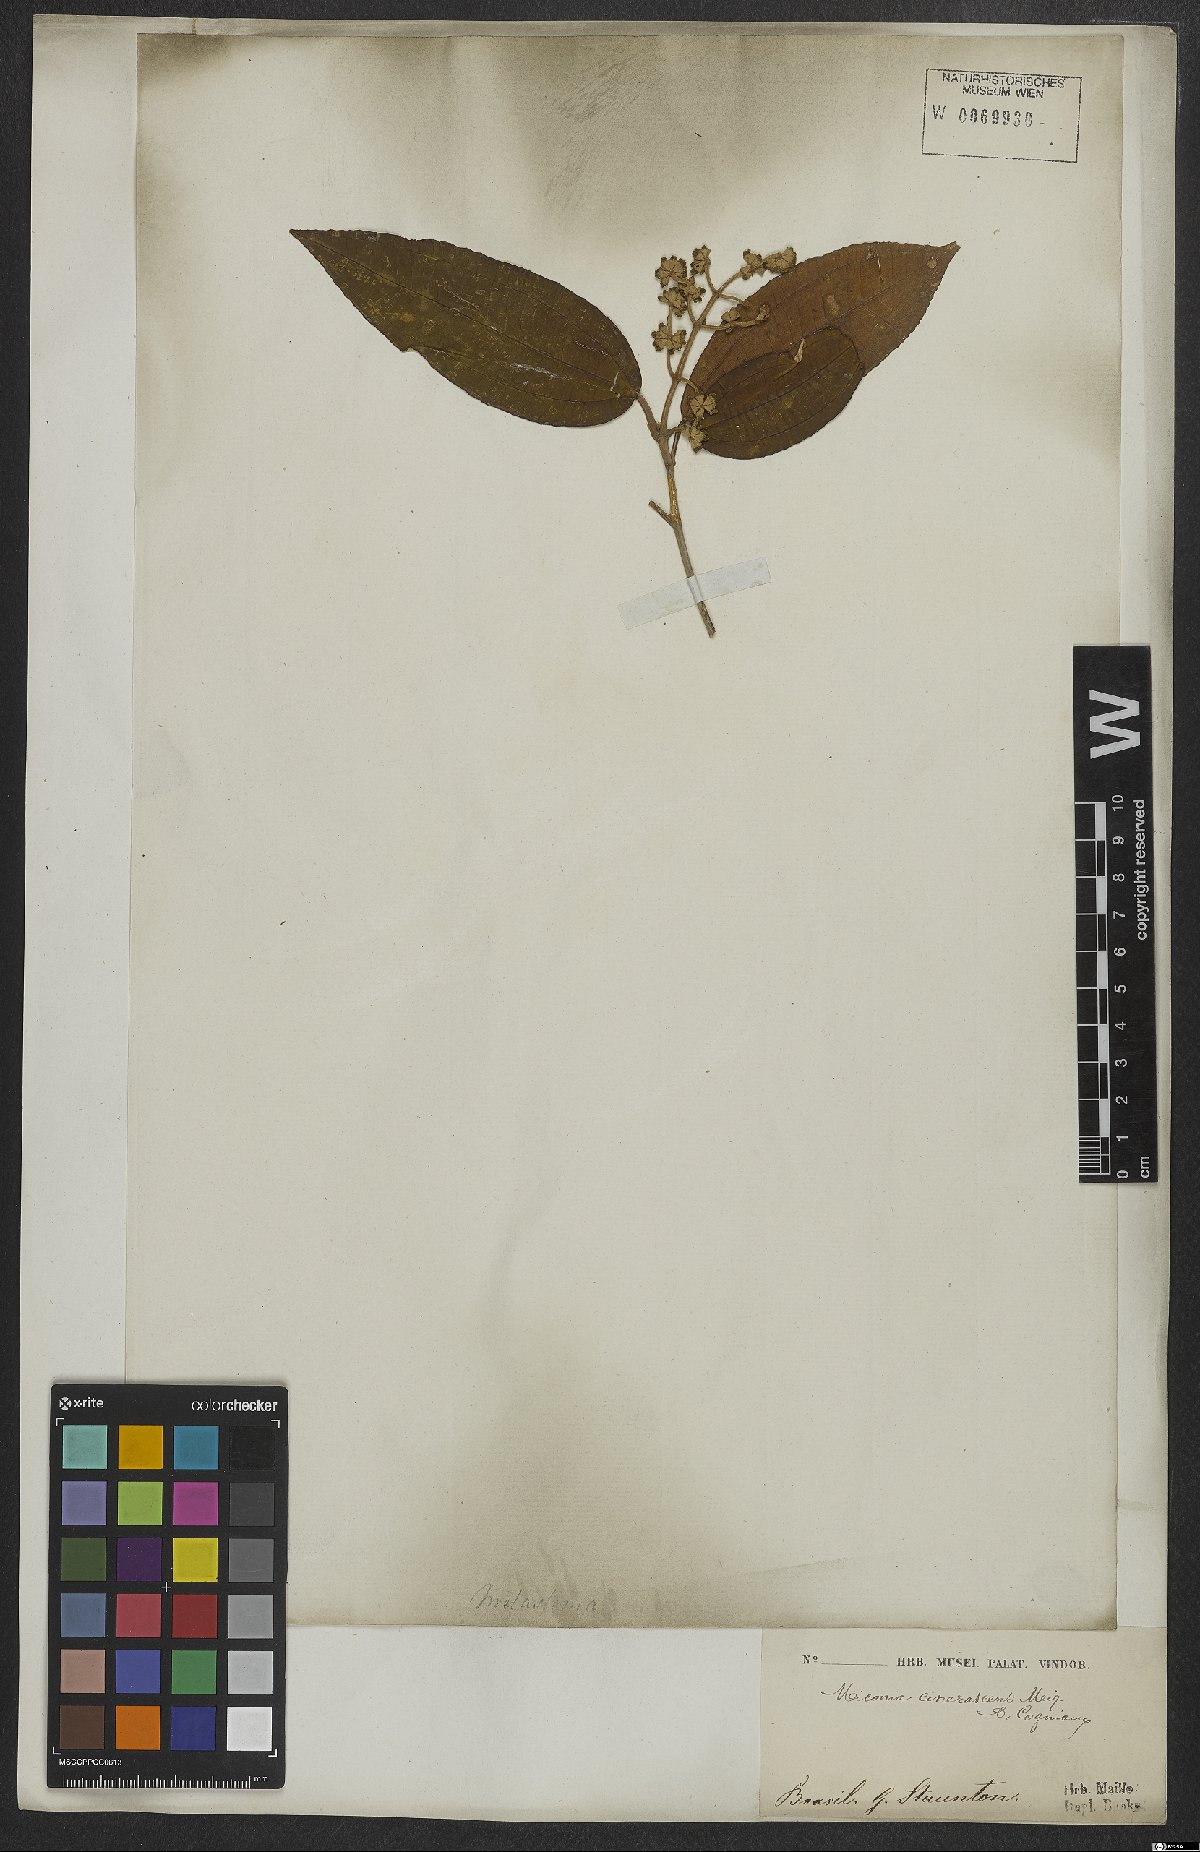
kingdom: Plantae
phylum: Tracheophyta
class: Magnoliopsida
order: Myrtales
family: Melastomataceae
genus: Miconia
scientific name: Miconia cinerascens
